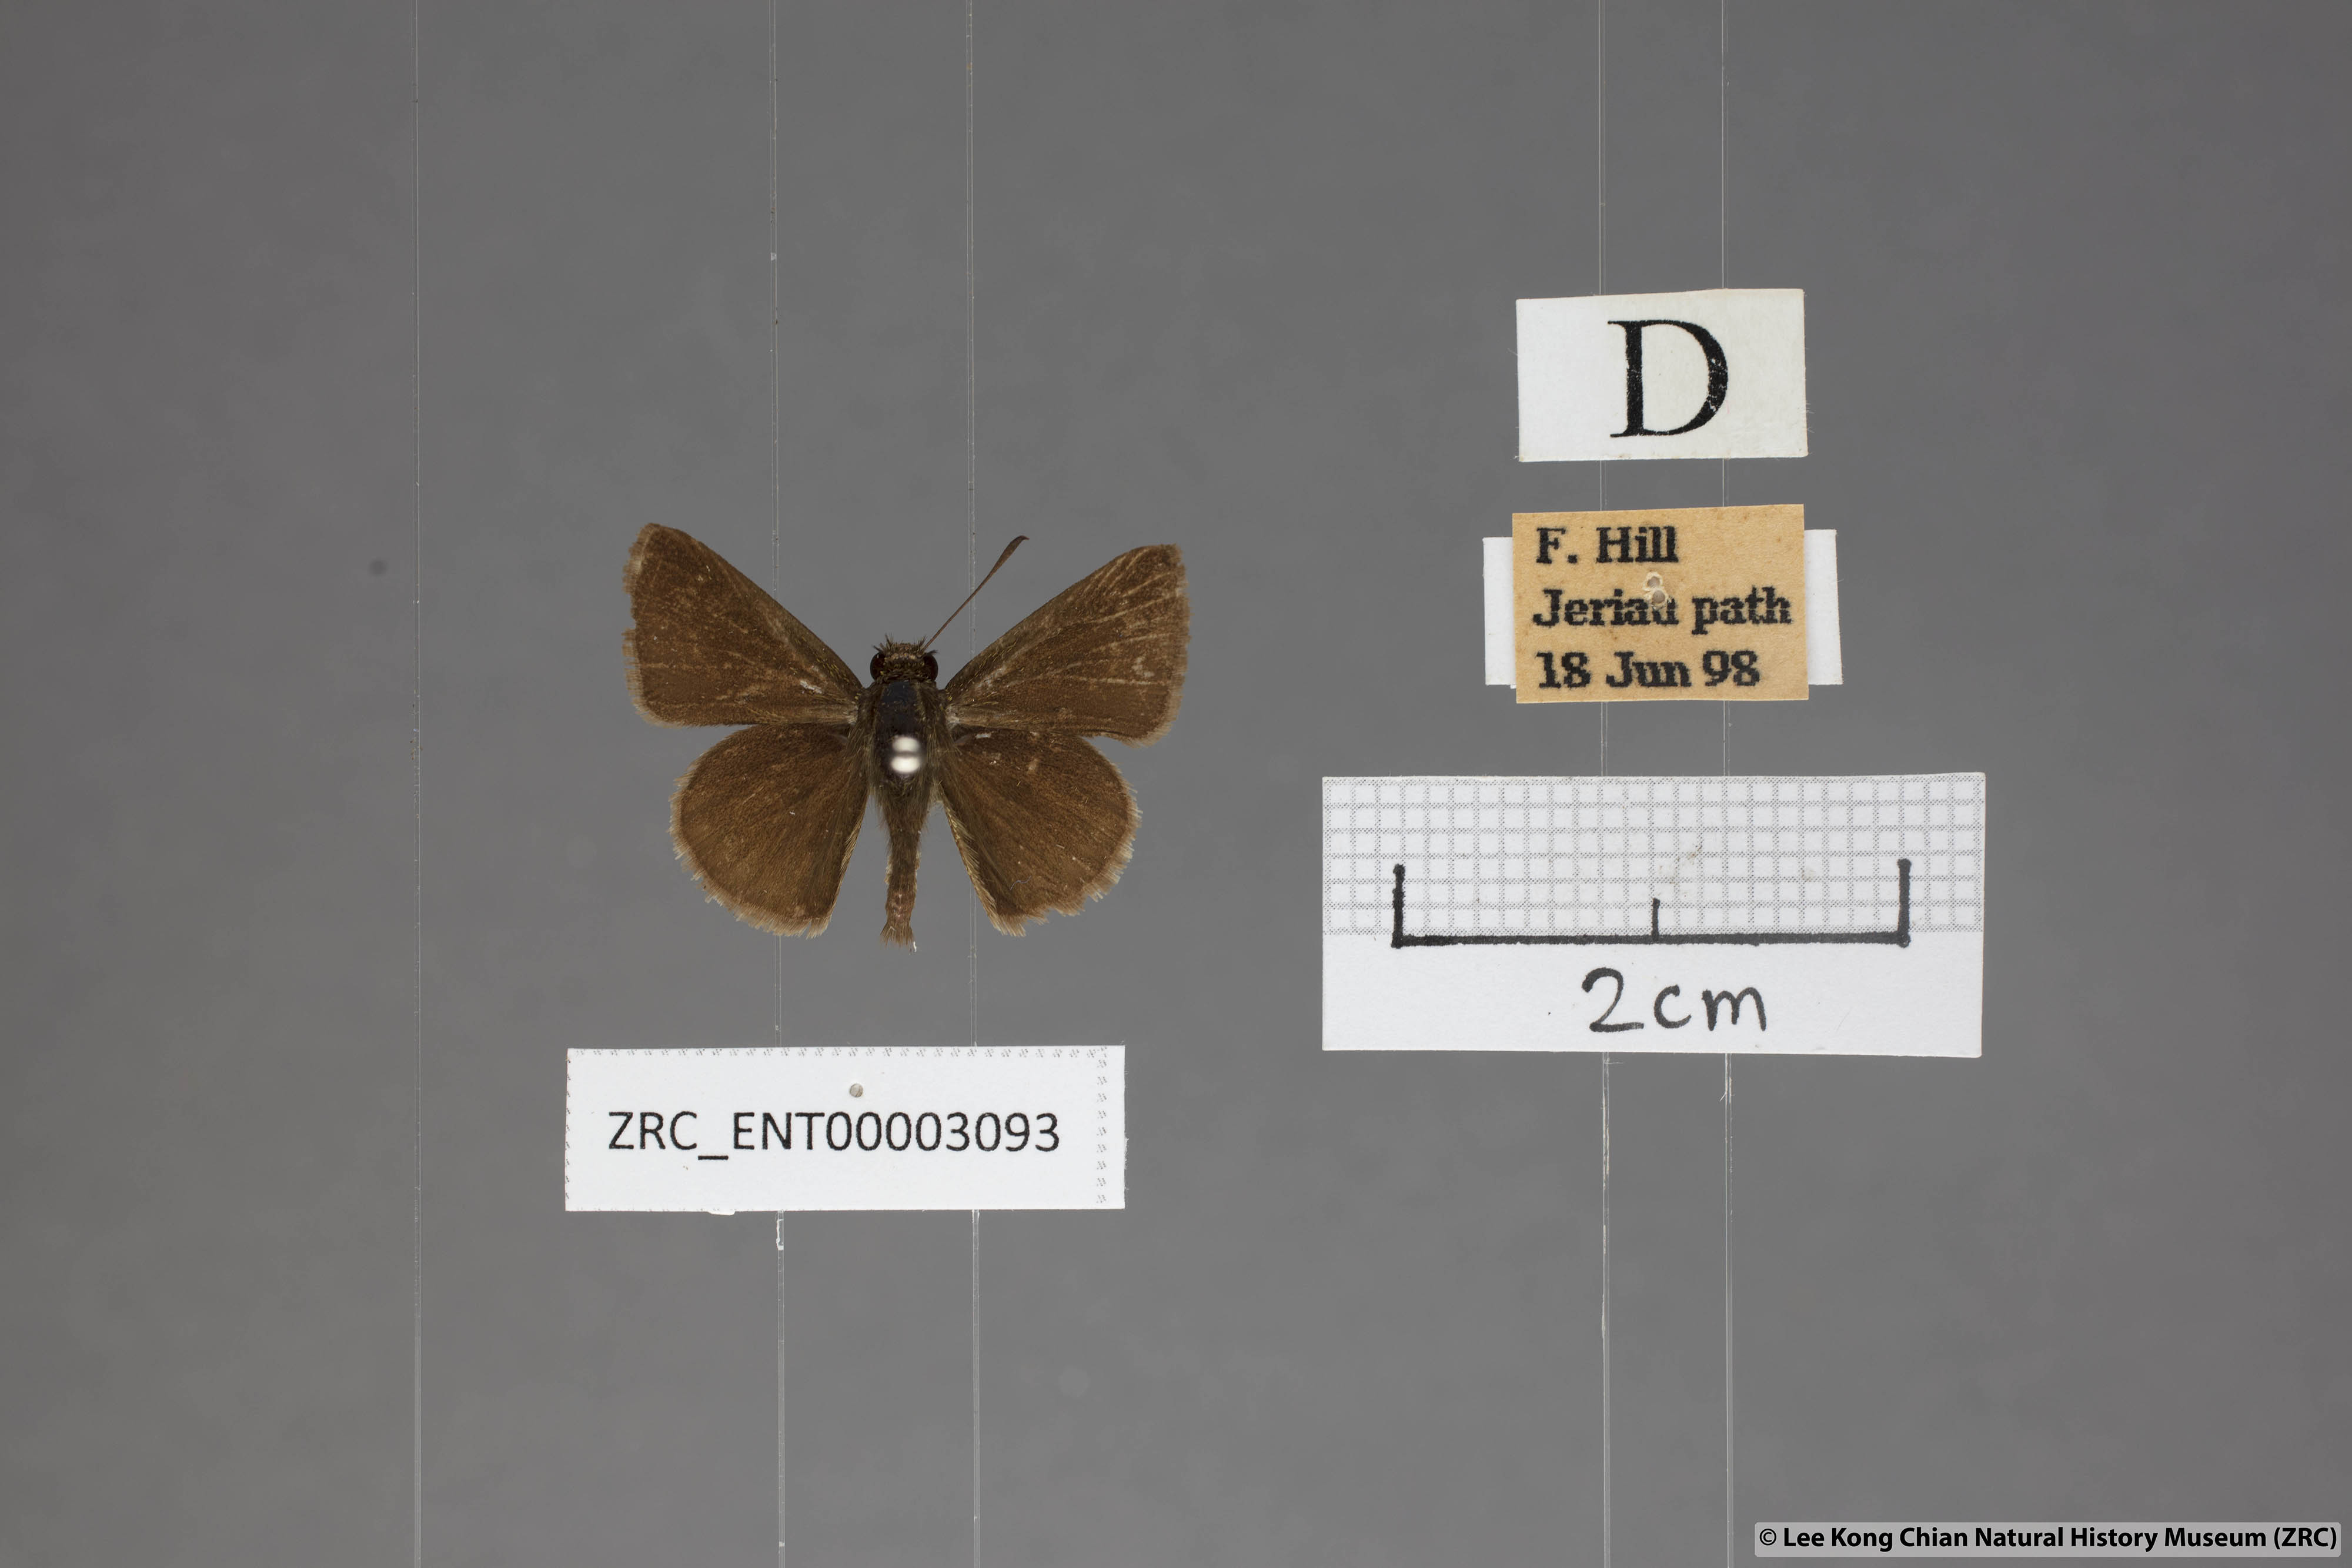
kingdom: Animalia
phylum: Arthropoda
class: Insecta
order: Lepidoptera
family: Hesperiidae
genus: Aeromachus
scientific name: Aeromachus jhora
